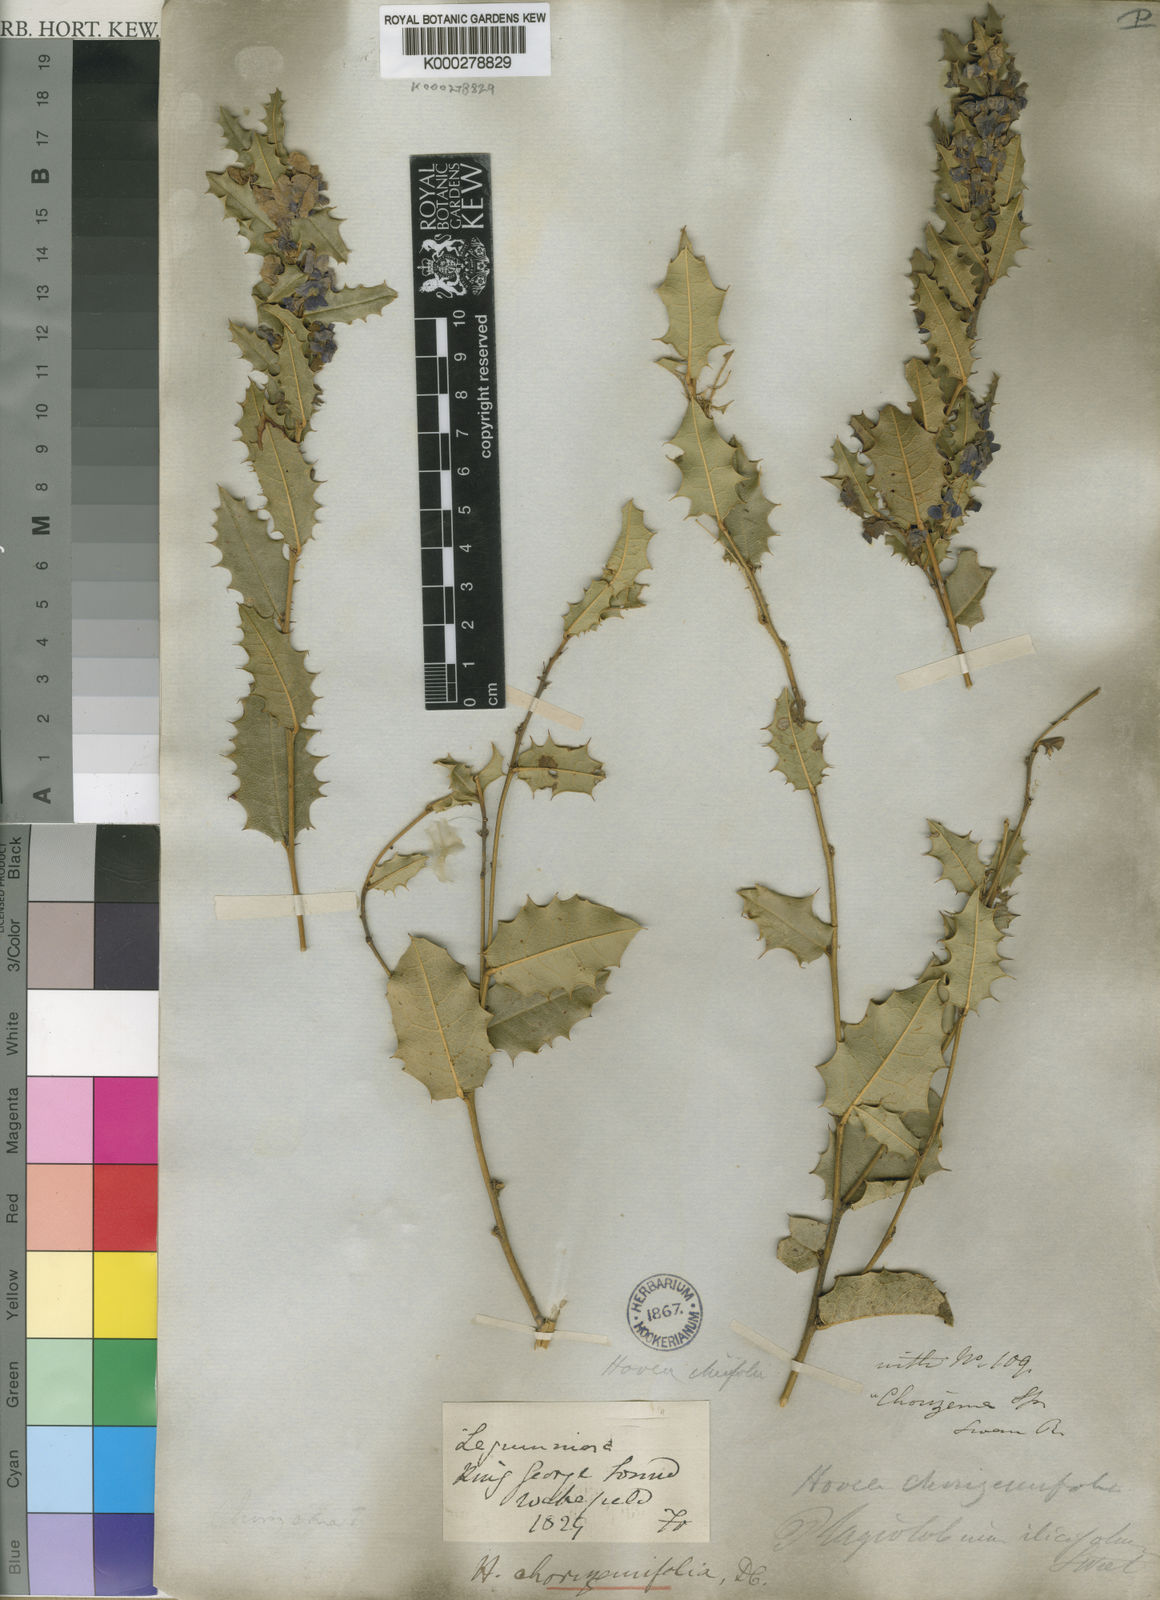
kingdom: Plantae
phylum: Tracheophyta
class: Magnoliopsida
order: Fabales
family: Fabaceae
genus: Hovea
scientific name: Hovea chorizemifolia
